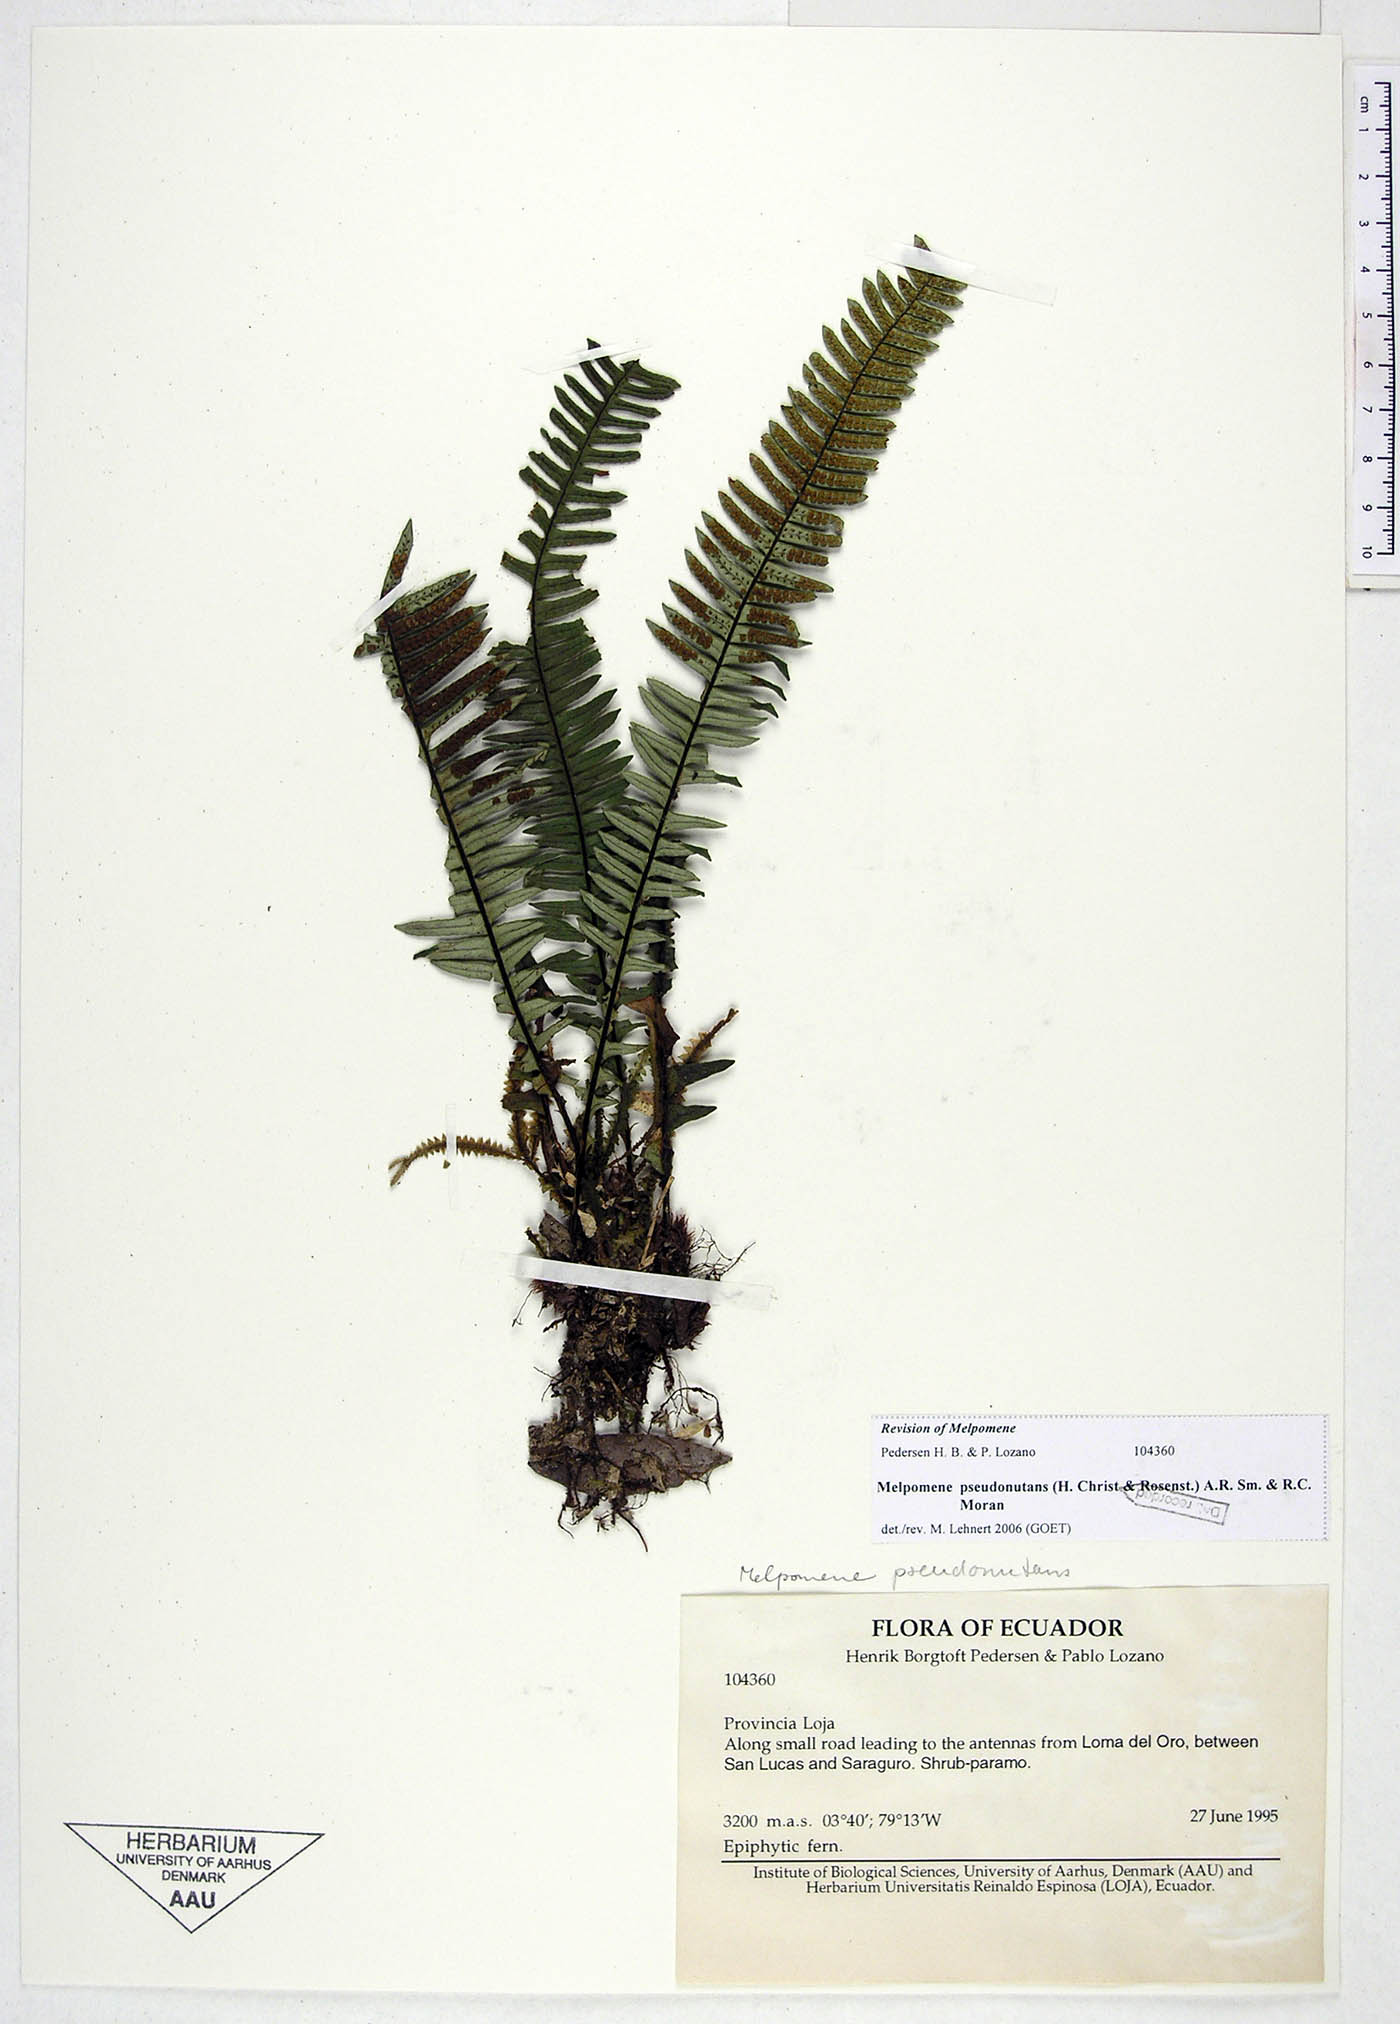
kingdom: Plantae
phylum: Tracheophyta
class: Polypodiopsida
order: Polypodiales
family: Polypodiaceae
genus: Melpomene
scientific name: Melpomene pseudonutans
